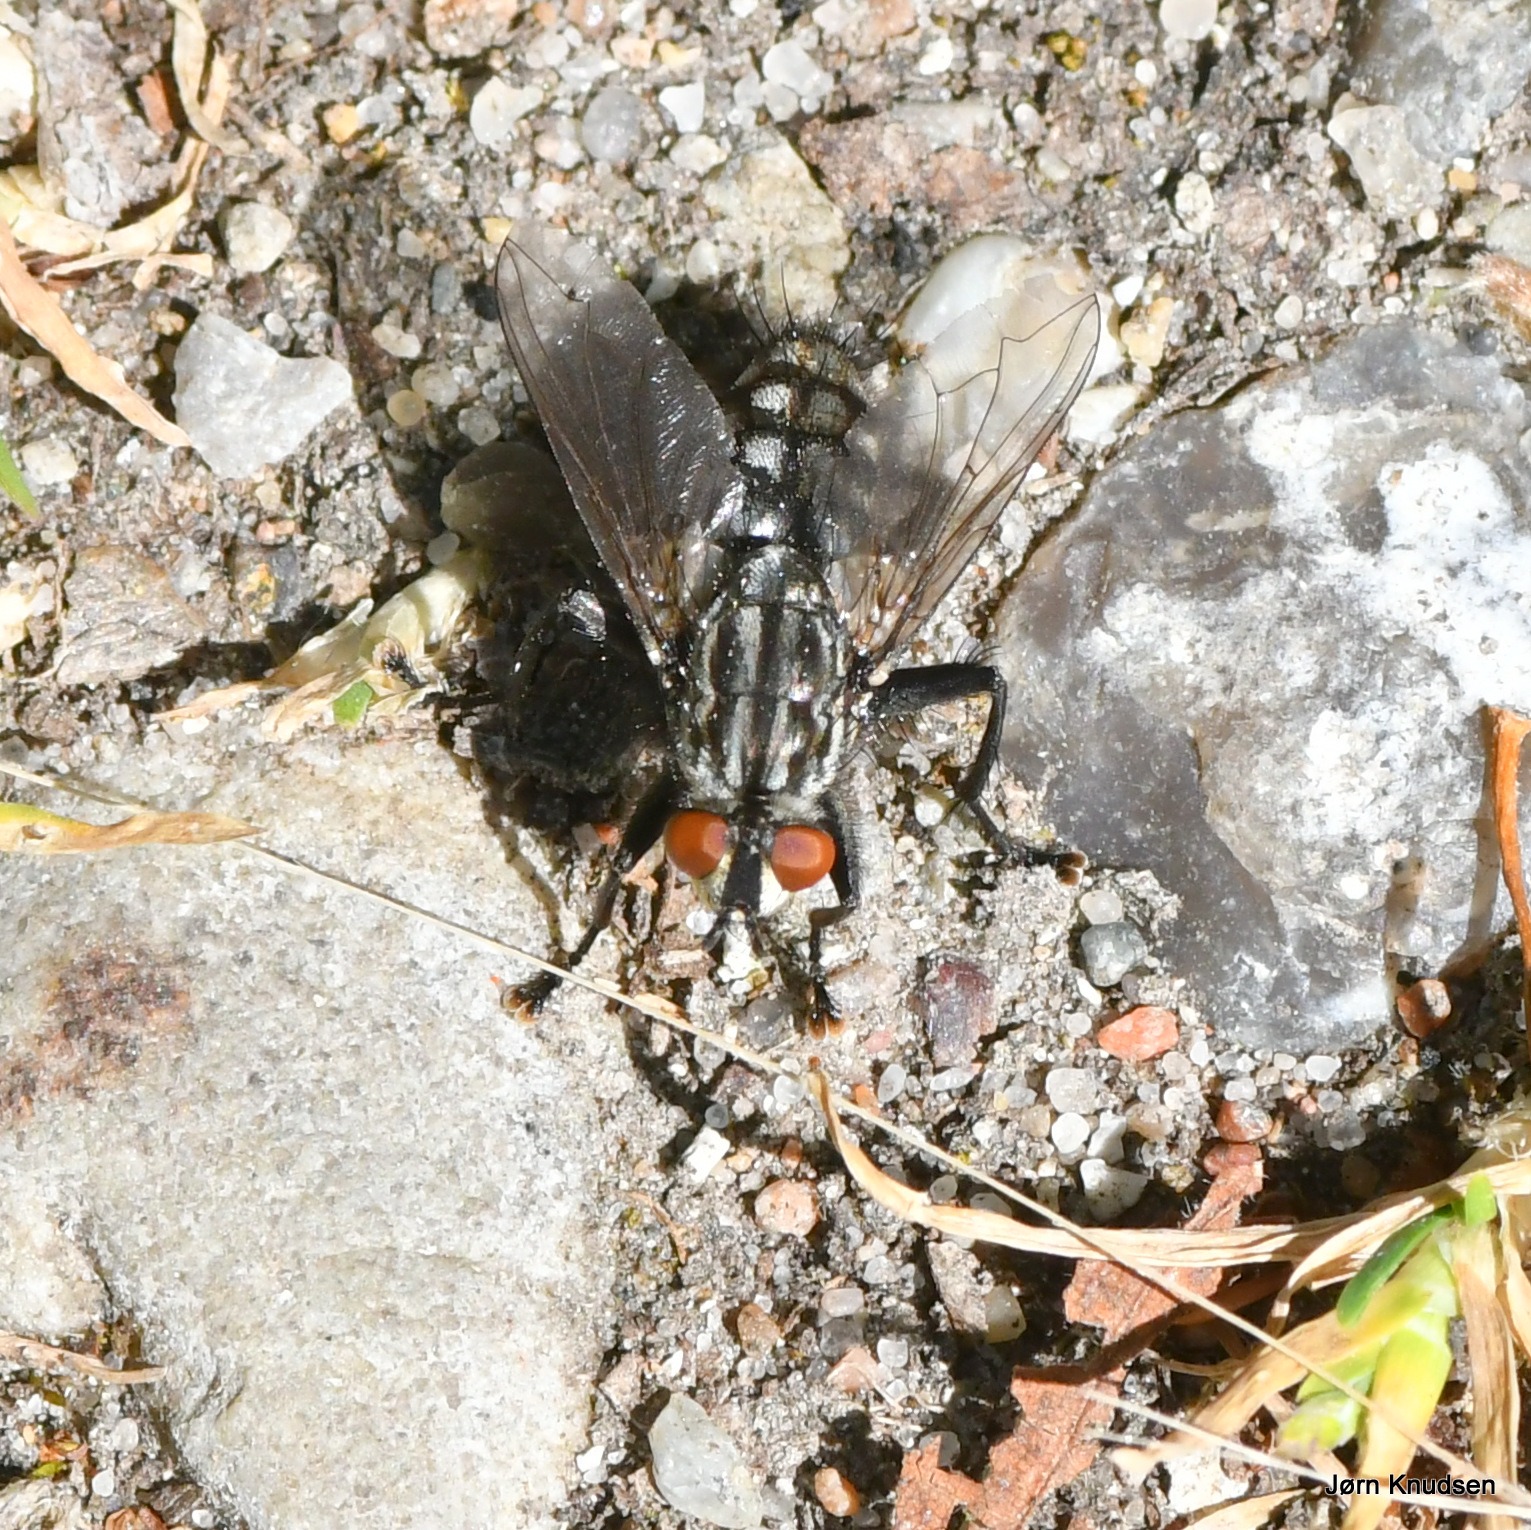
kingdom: Animalia
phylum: Arthropoda
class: Insecta
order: Diptera
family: Sarcophagidae
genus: Sarcophaga
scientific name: Sarcophaga
